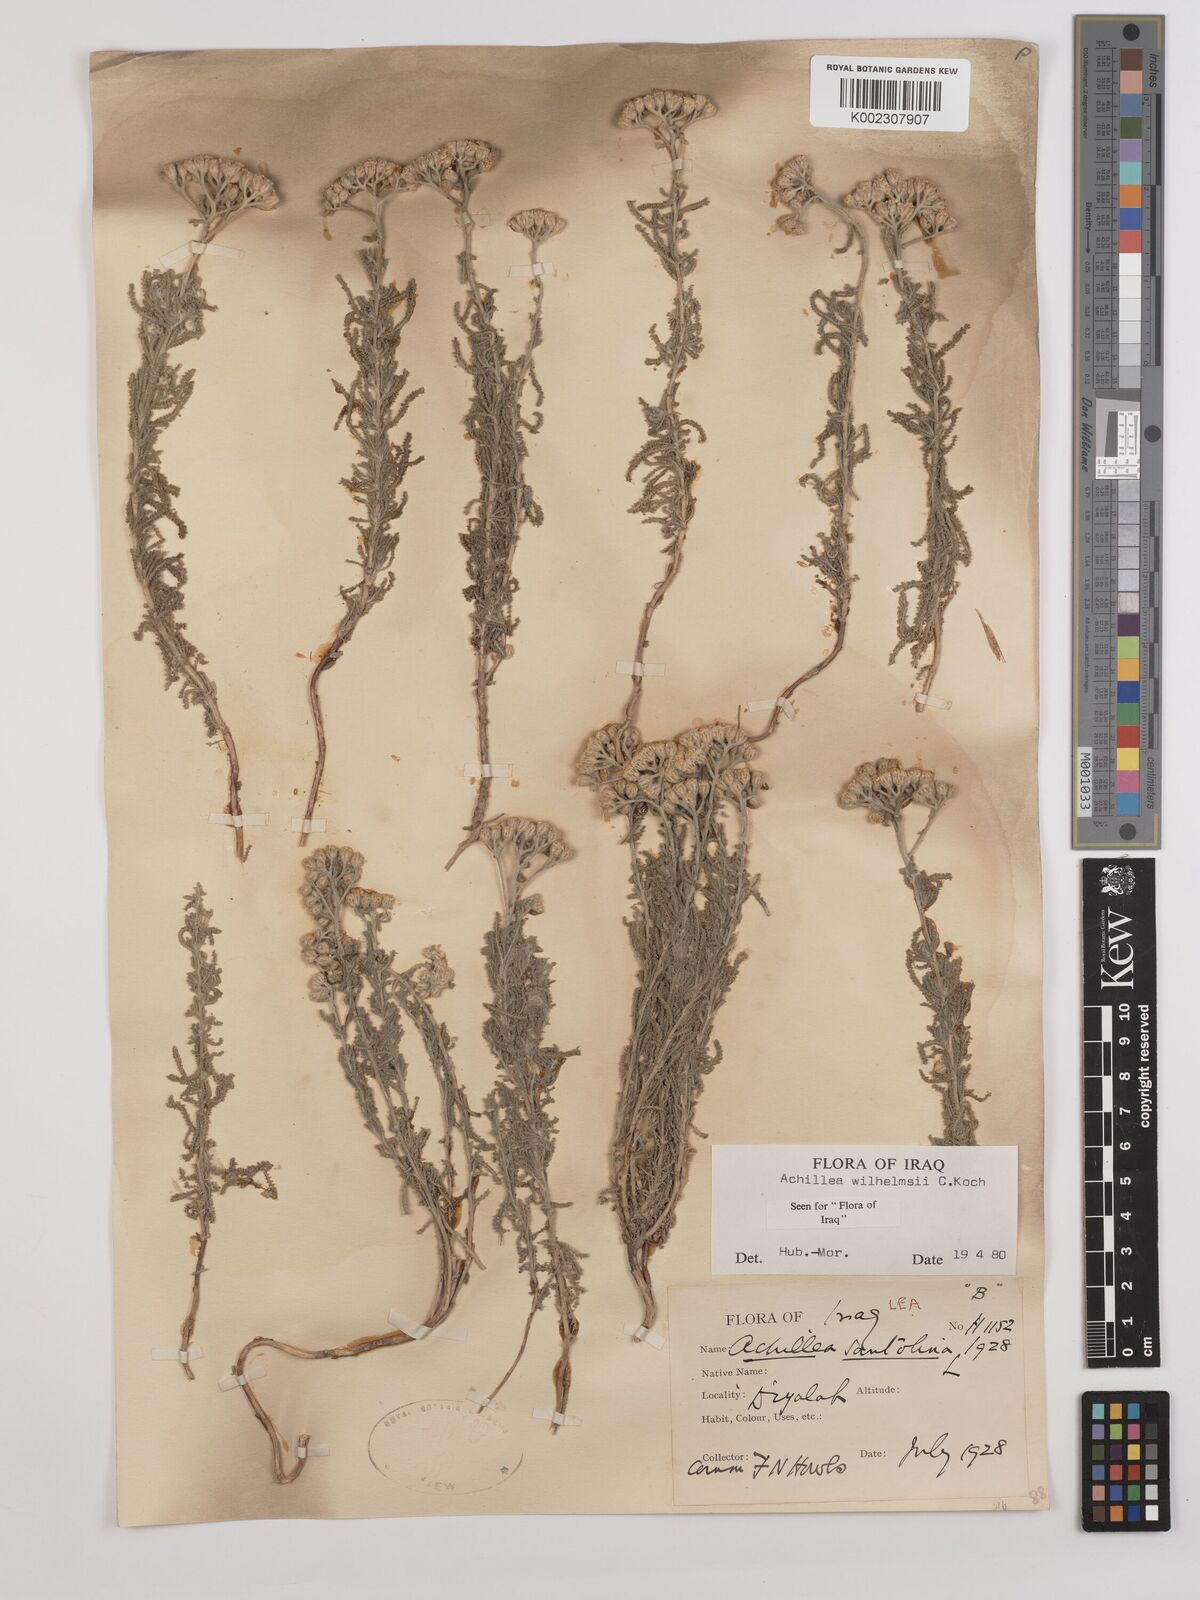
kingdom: Plantae
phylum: Tracheophyta
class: Magnoliopsida
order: Asterales
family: Asteraceae
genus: Achillea
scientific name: Achillea wilhelmsii
